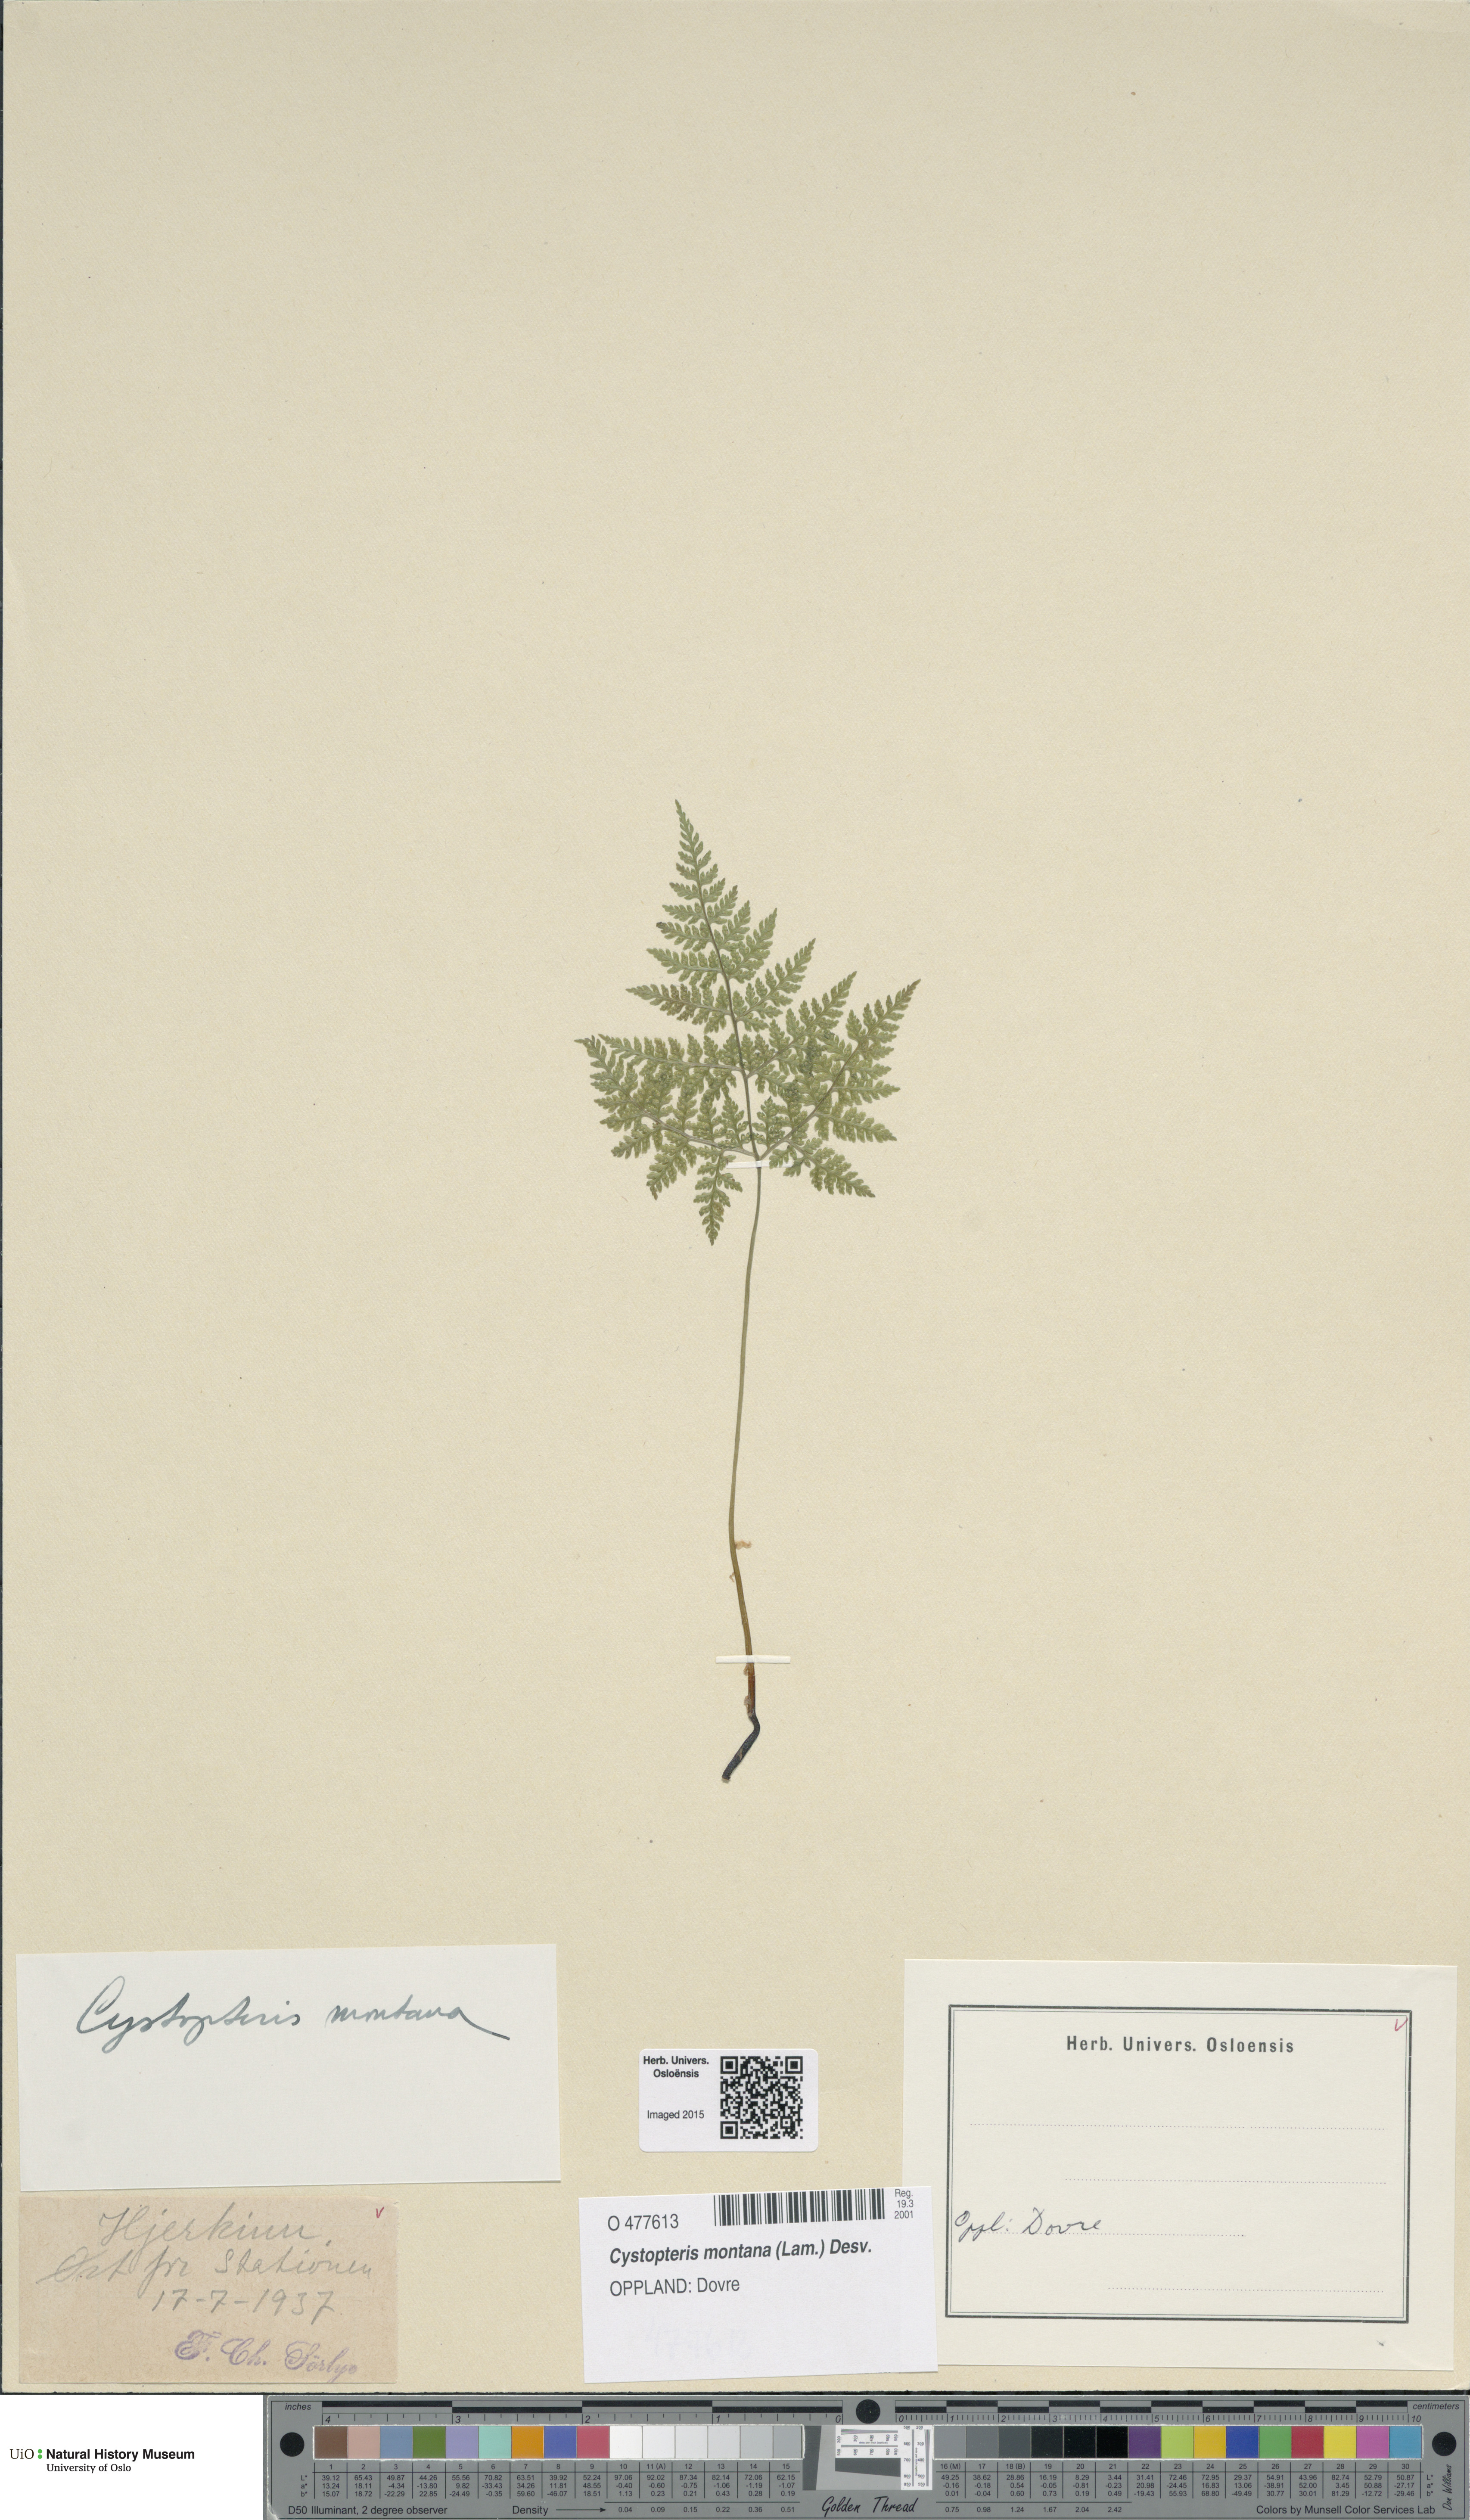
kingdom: Plantae
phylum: Tracheophyta
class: Polypodiopsida
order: Polypodiales
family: Cystopteridaceae
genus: Cystopteris
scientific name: Cystopteris montana
